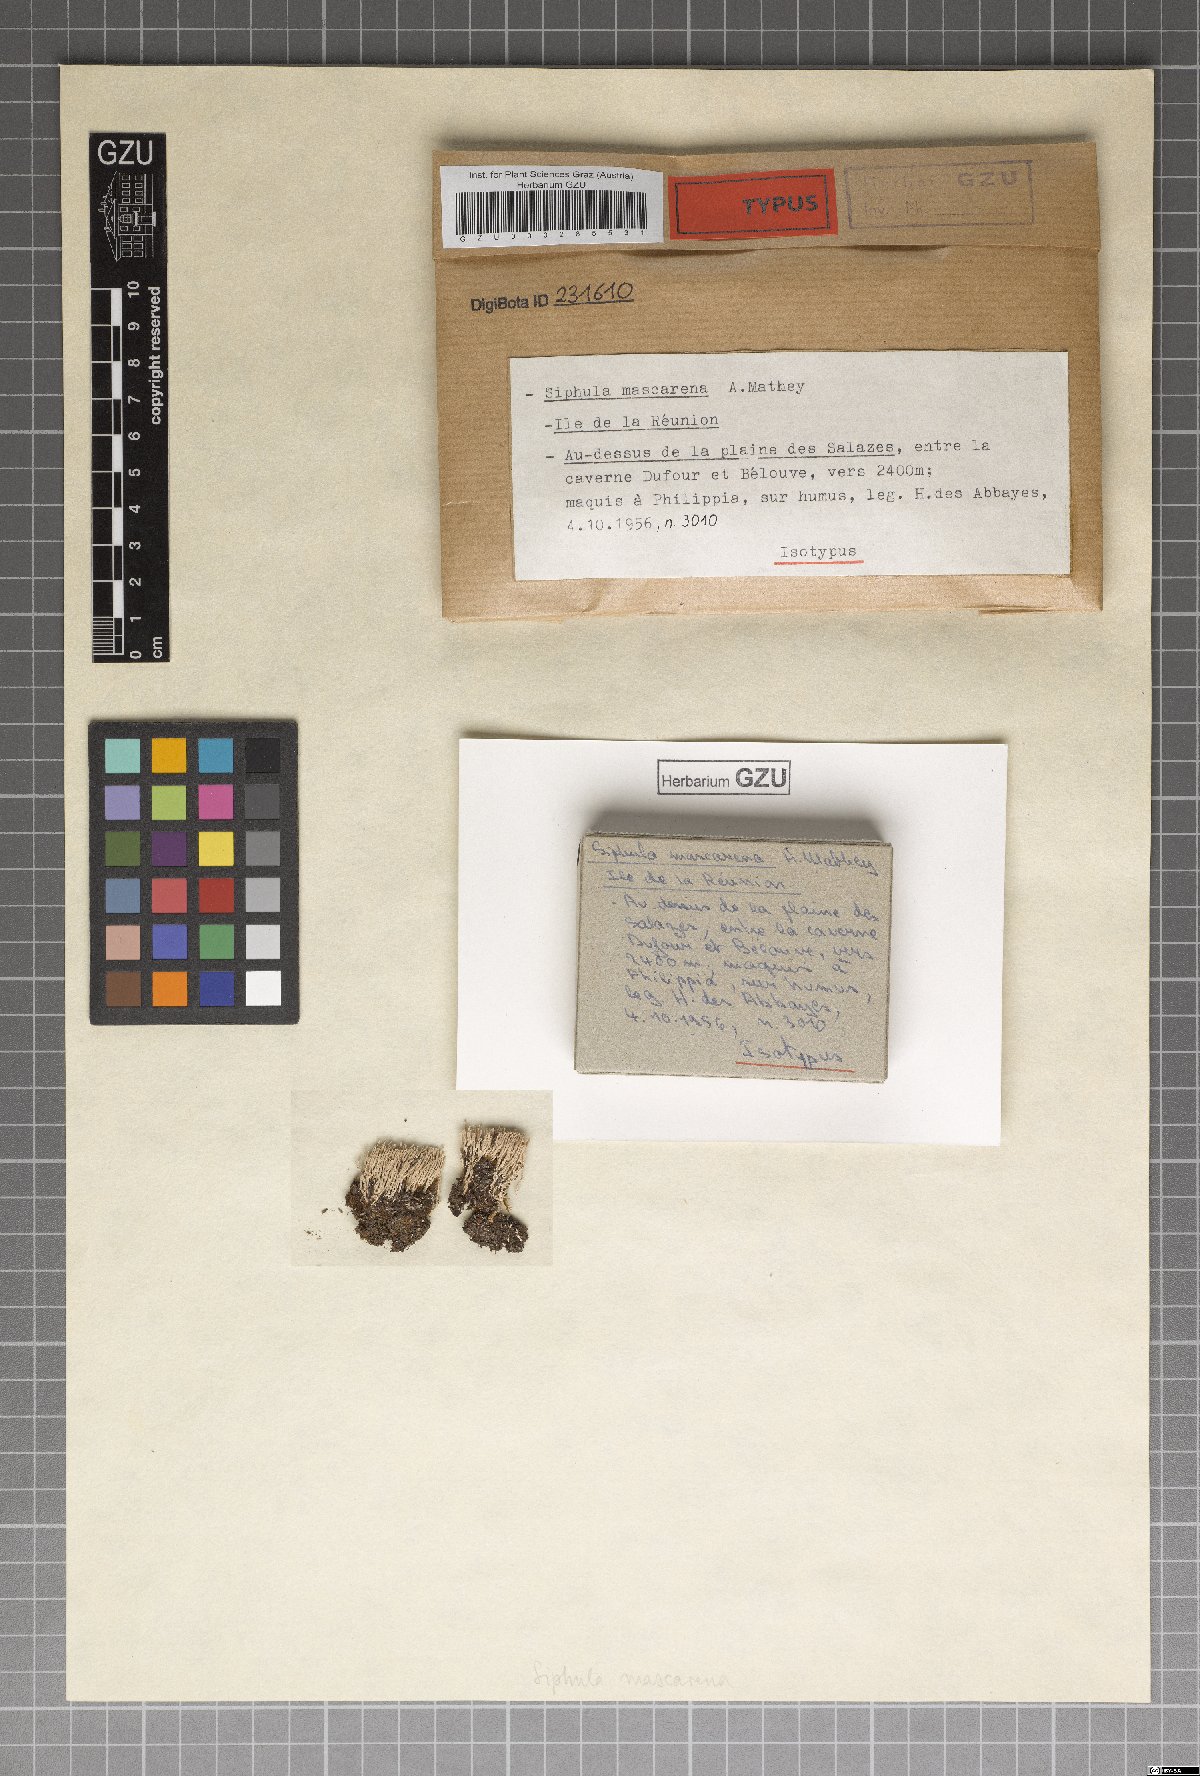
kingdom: Fungi
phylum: Ascomycota
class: Lecanoromycetes
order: Pertusariales
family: Icmadophilaceae
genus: Siphula
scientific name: Siphula mascarena
